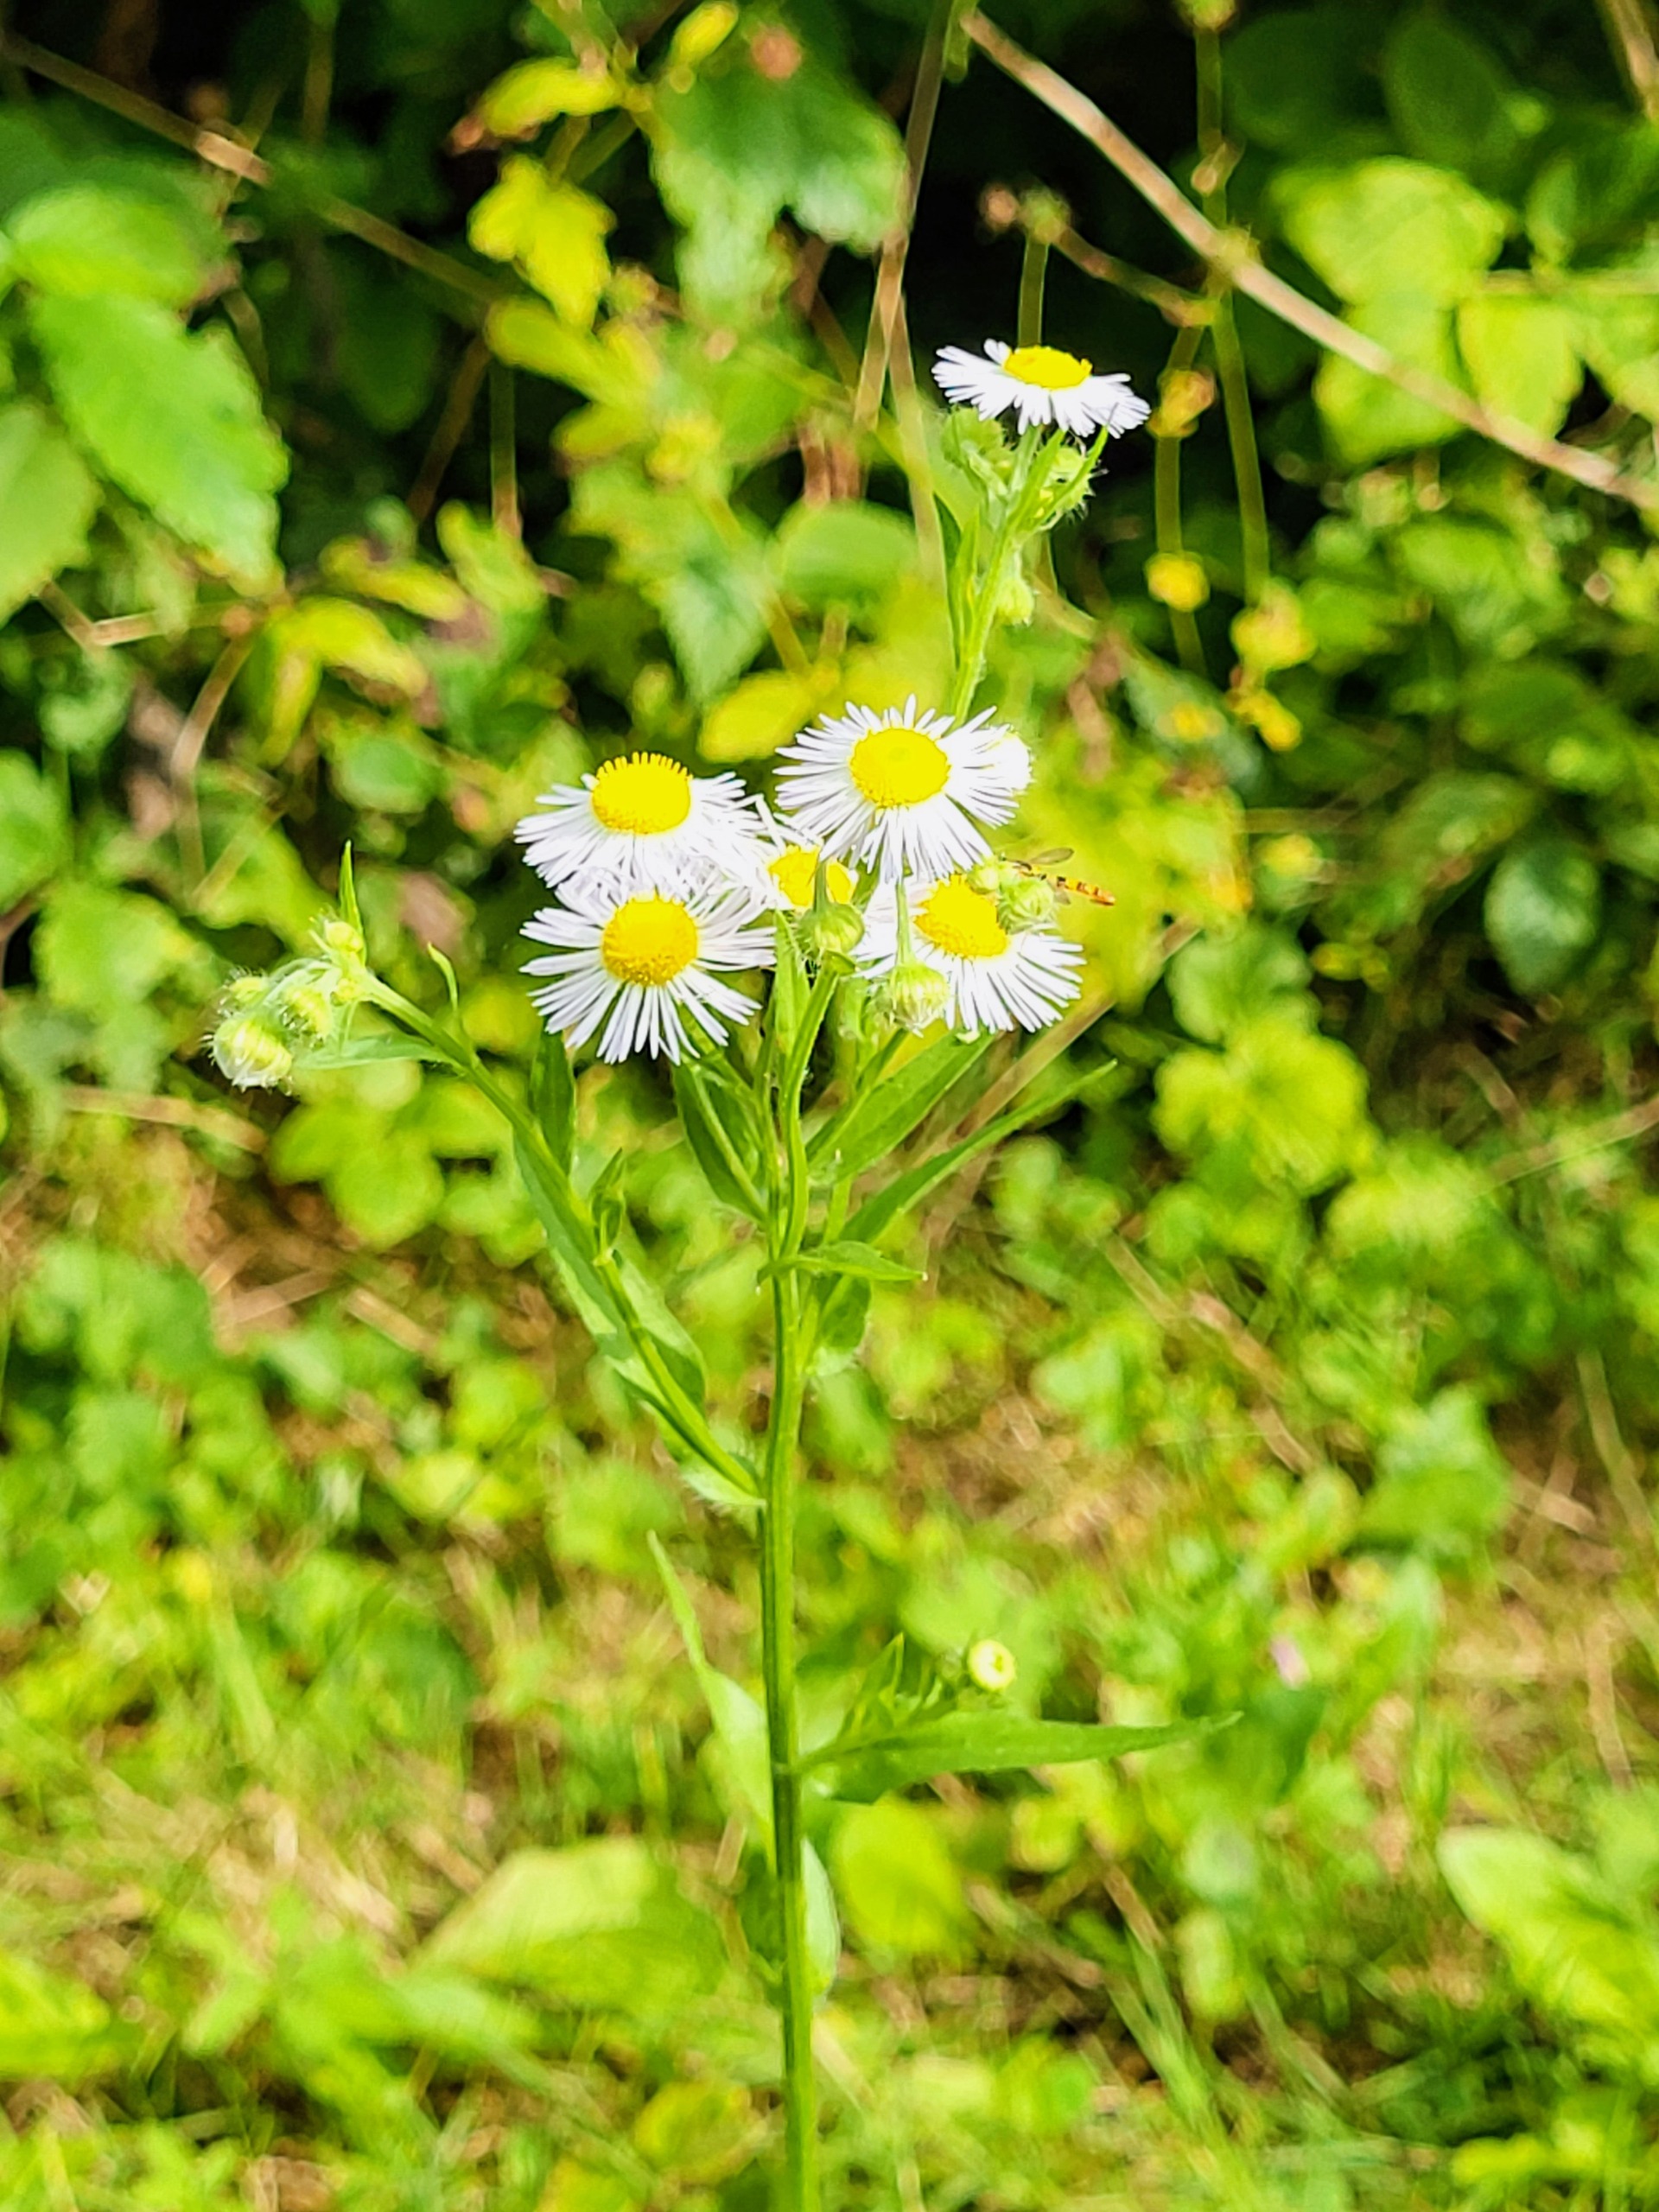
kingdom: Plantae
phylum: Tracheophyta
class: Magnoliopsida
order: Asterales
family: Asteraceae
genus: Erigeron
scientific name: Erigeron annuus
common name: Smalstråle
